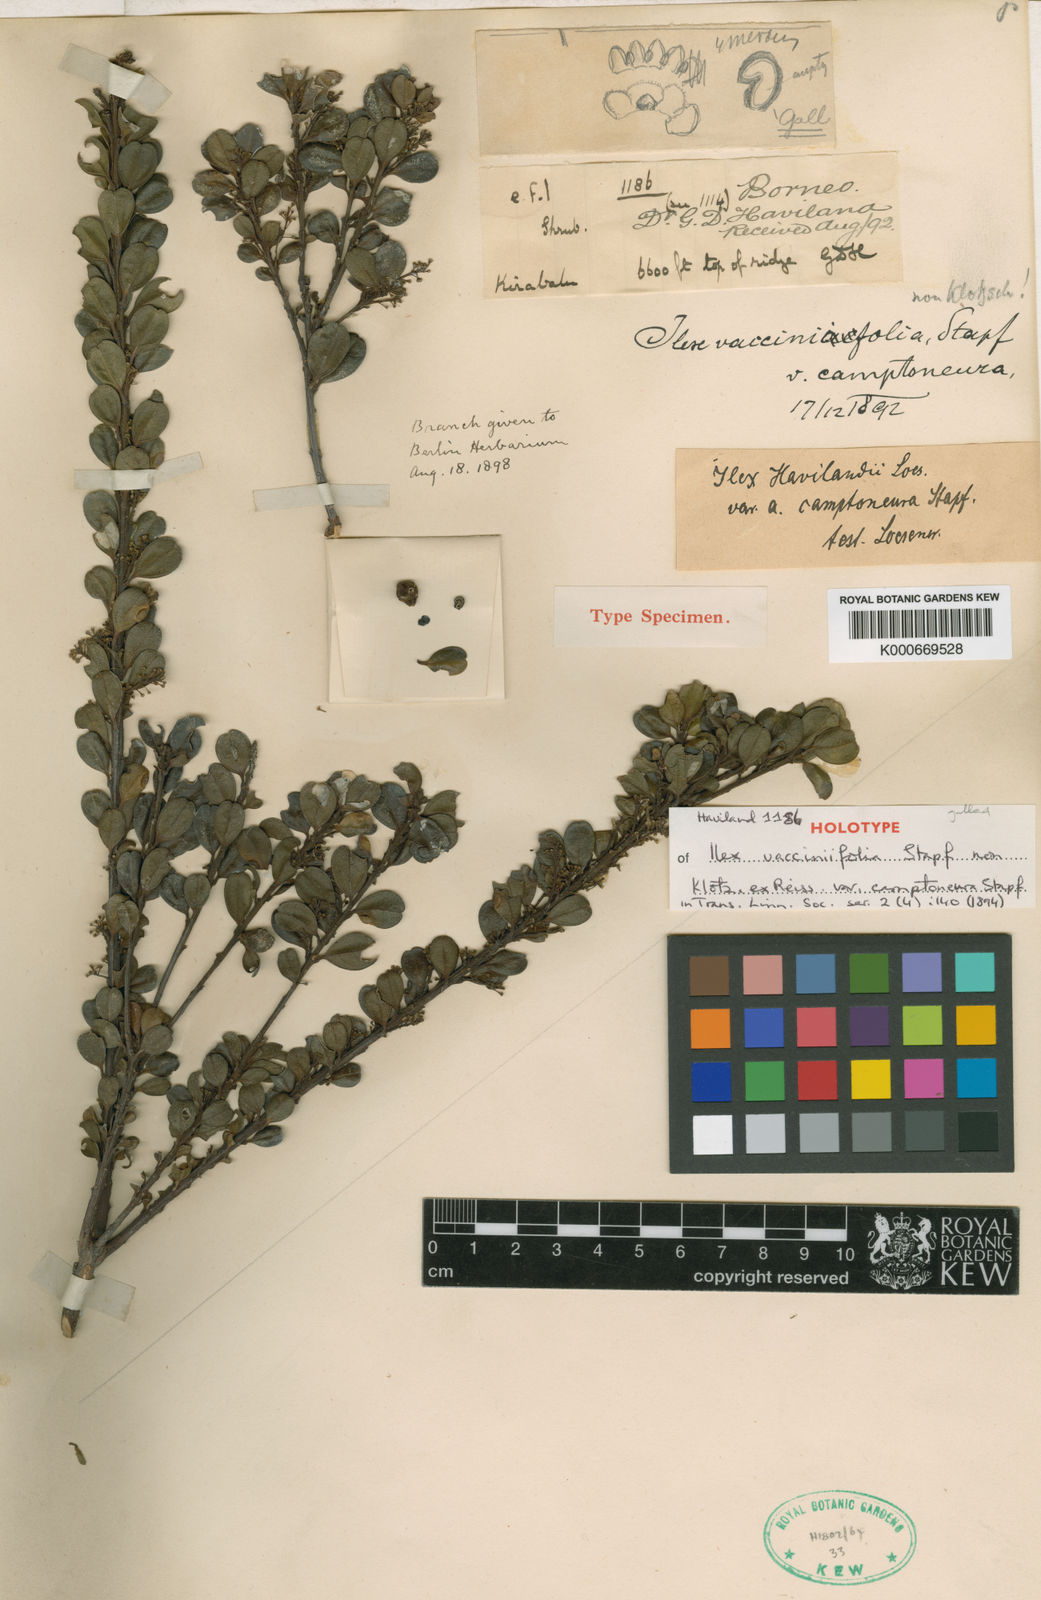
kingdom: Plantae
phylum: Tracheophyta
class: Magnoliopsida
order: Aquifoliales
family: Aquifoliaceae
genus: Ilex
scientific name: Ilex havilandii
